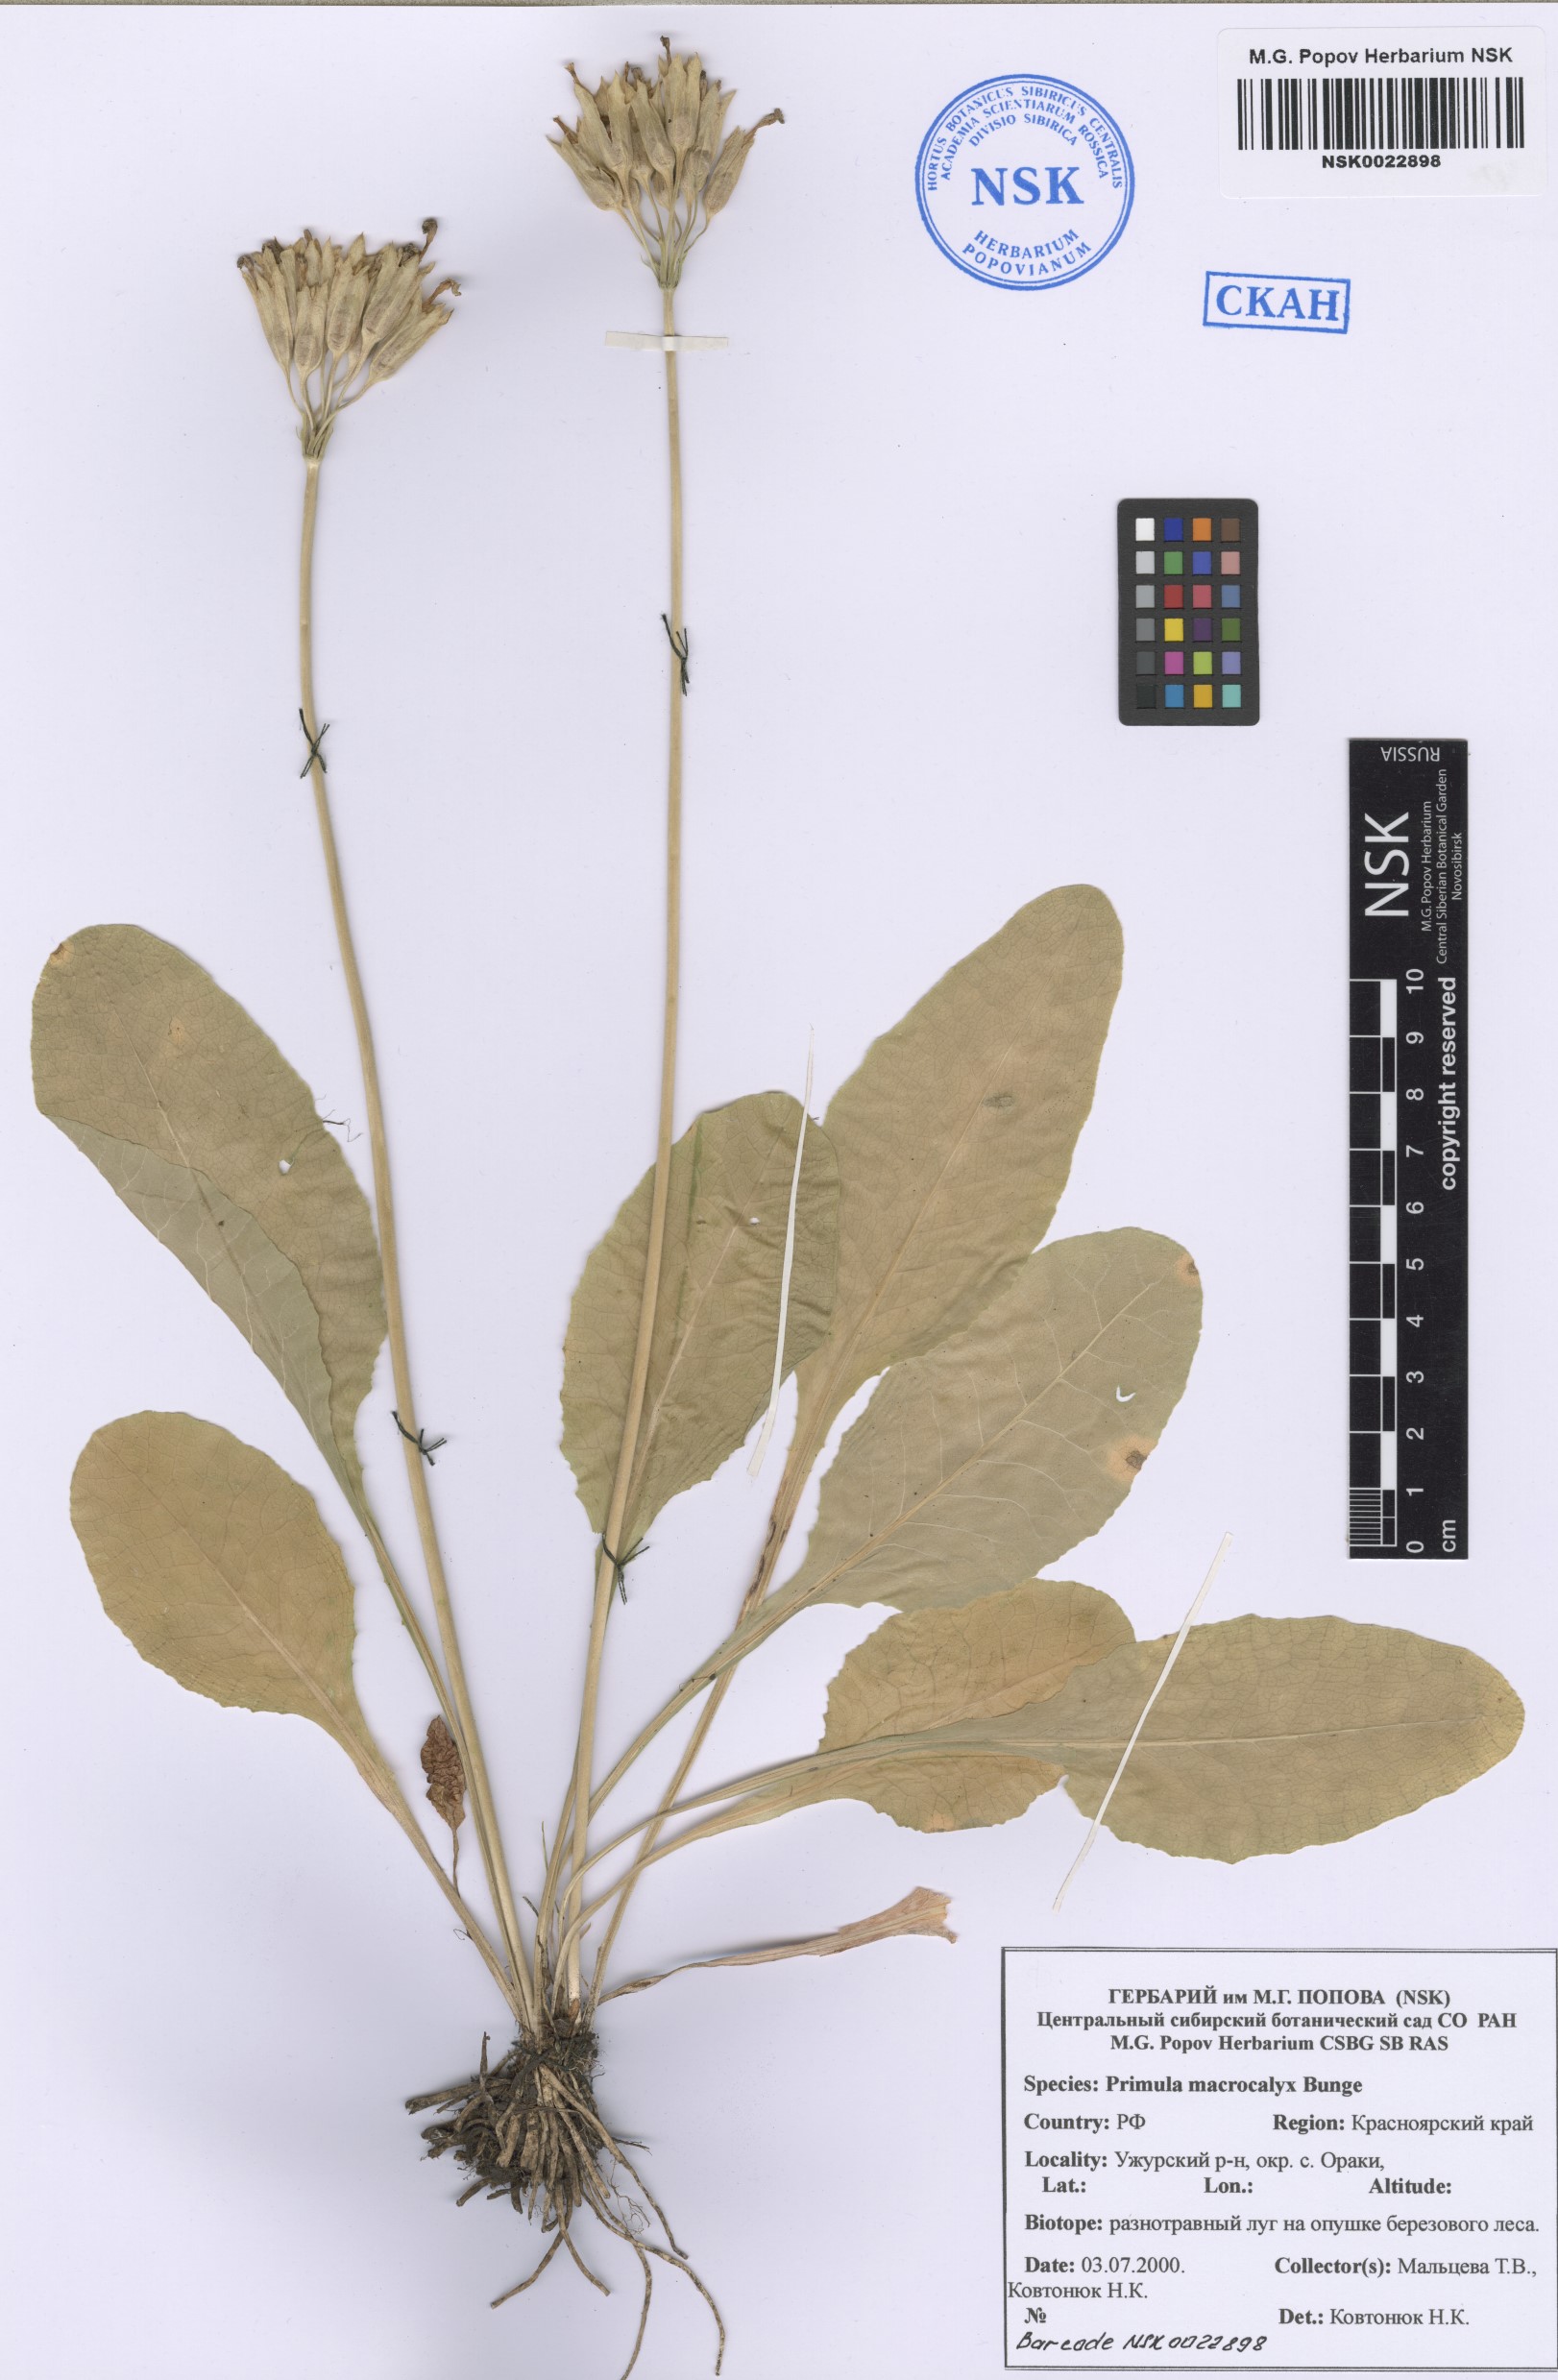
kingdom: Plantae
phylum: Tracheophyta
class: Magnoliopsida
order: Ericales
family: Primulaceae
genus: Primula
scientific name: Primula veris
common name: Cowslip
